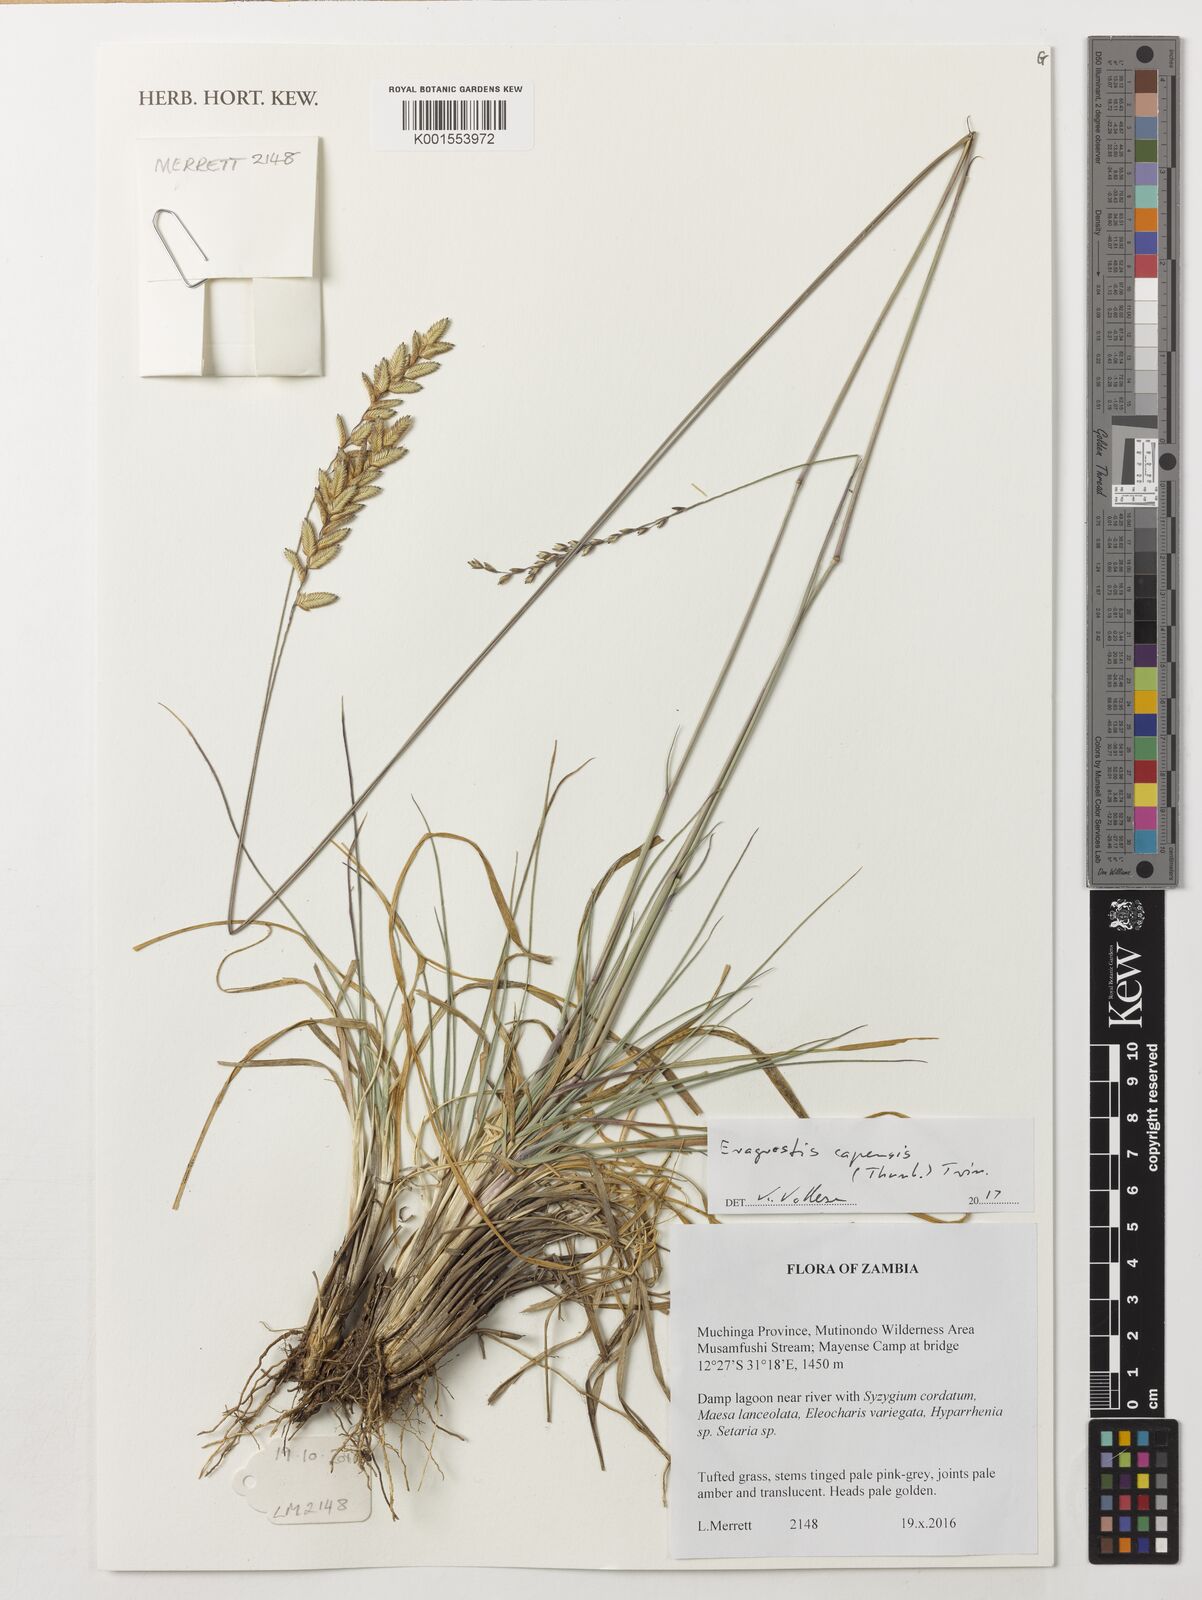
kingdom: Plantae
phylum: Tracheophyta
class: Liliopsida
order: Poales
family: Poaceae
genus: Eragrostis
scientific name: Eragrostis capensis
